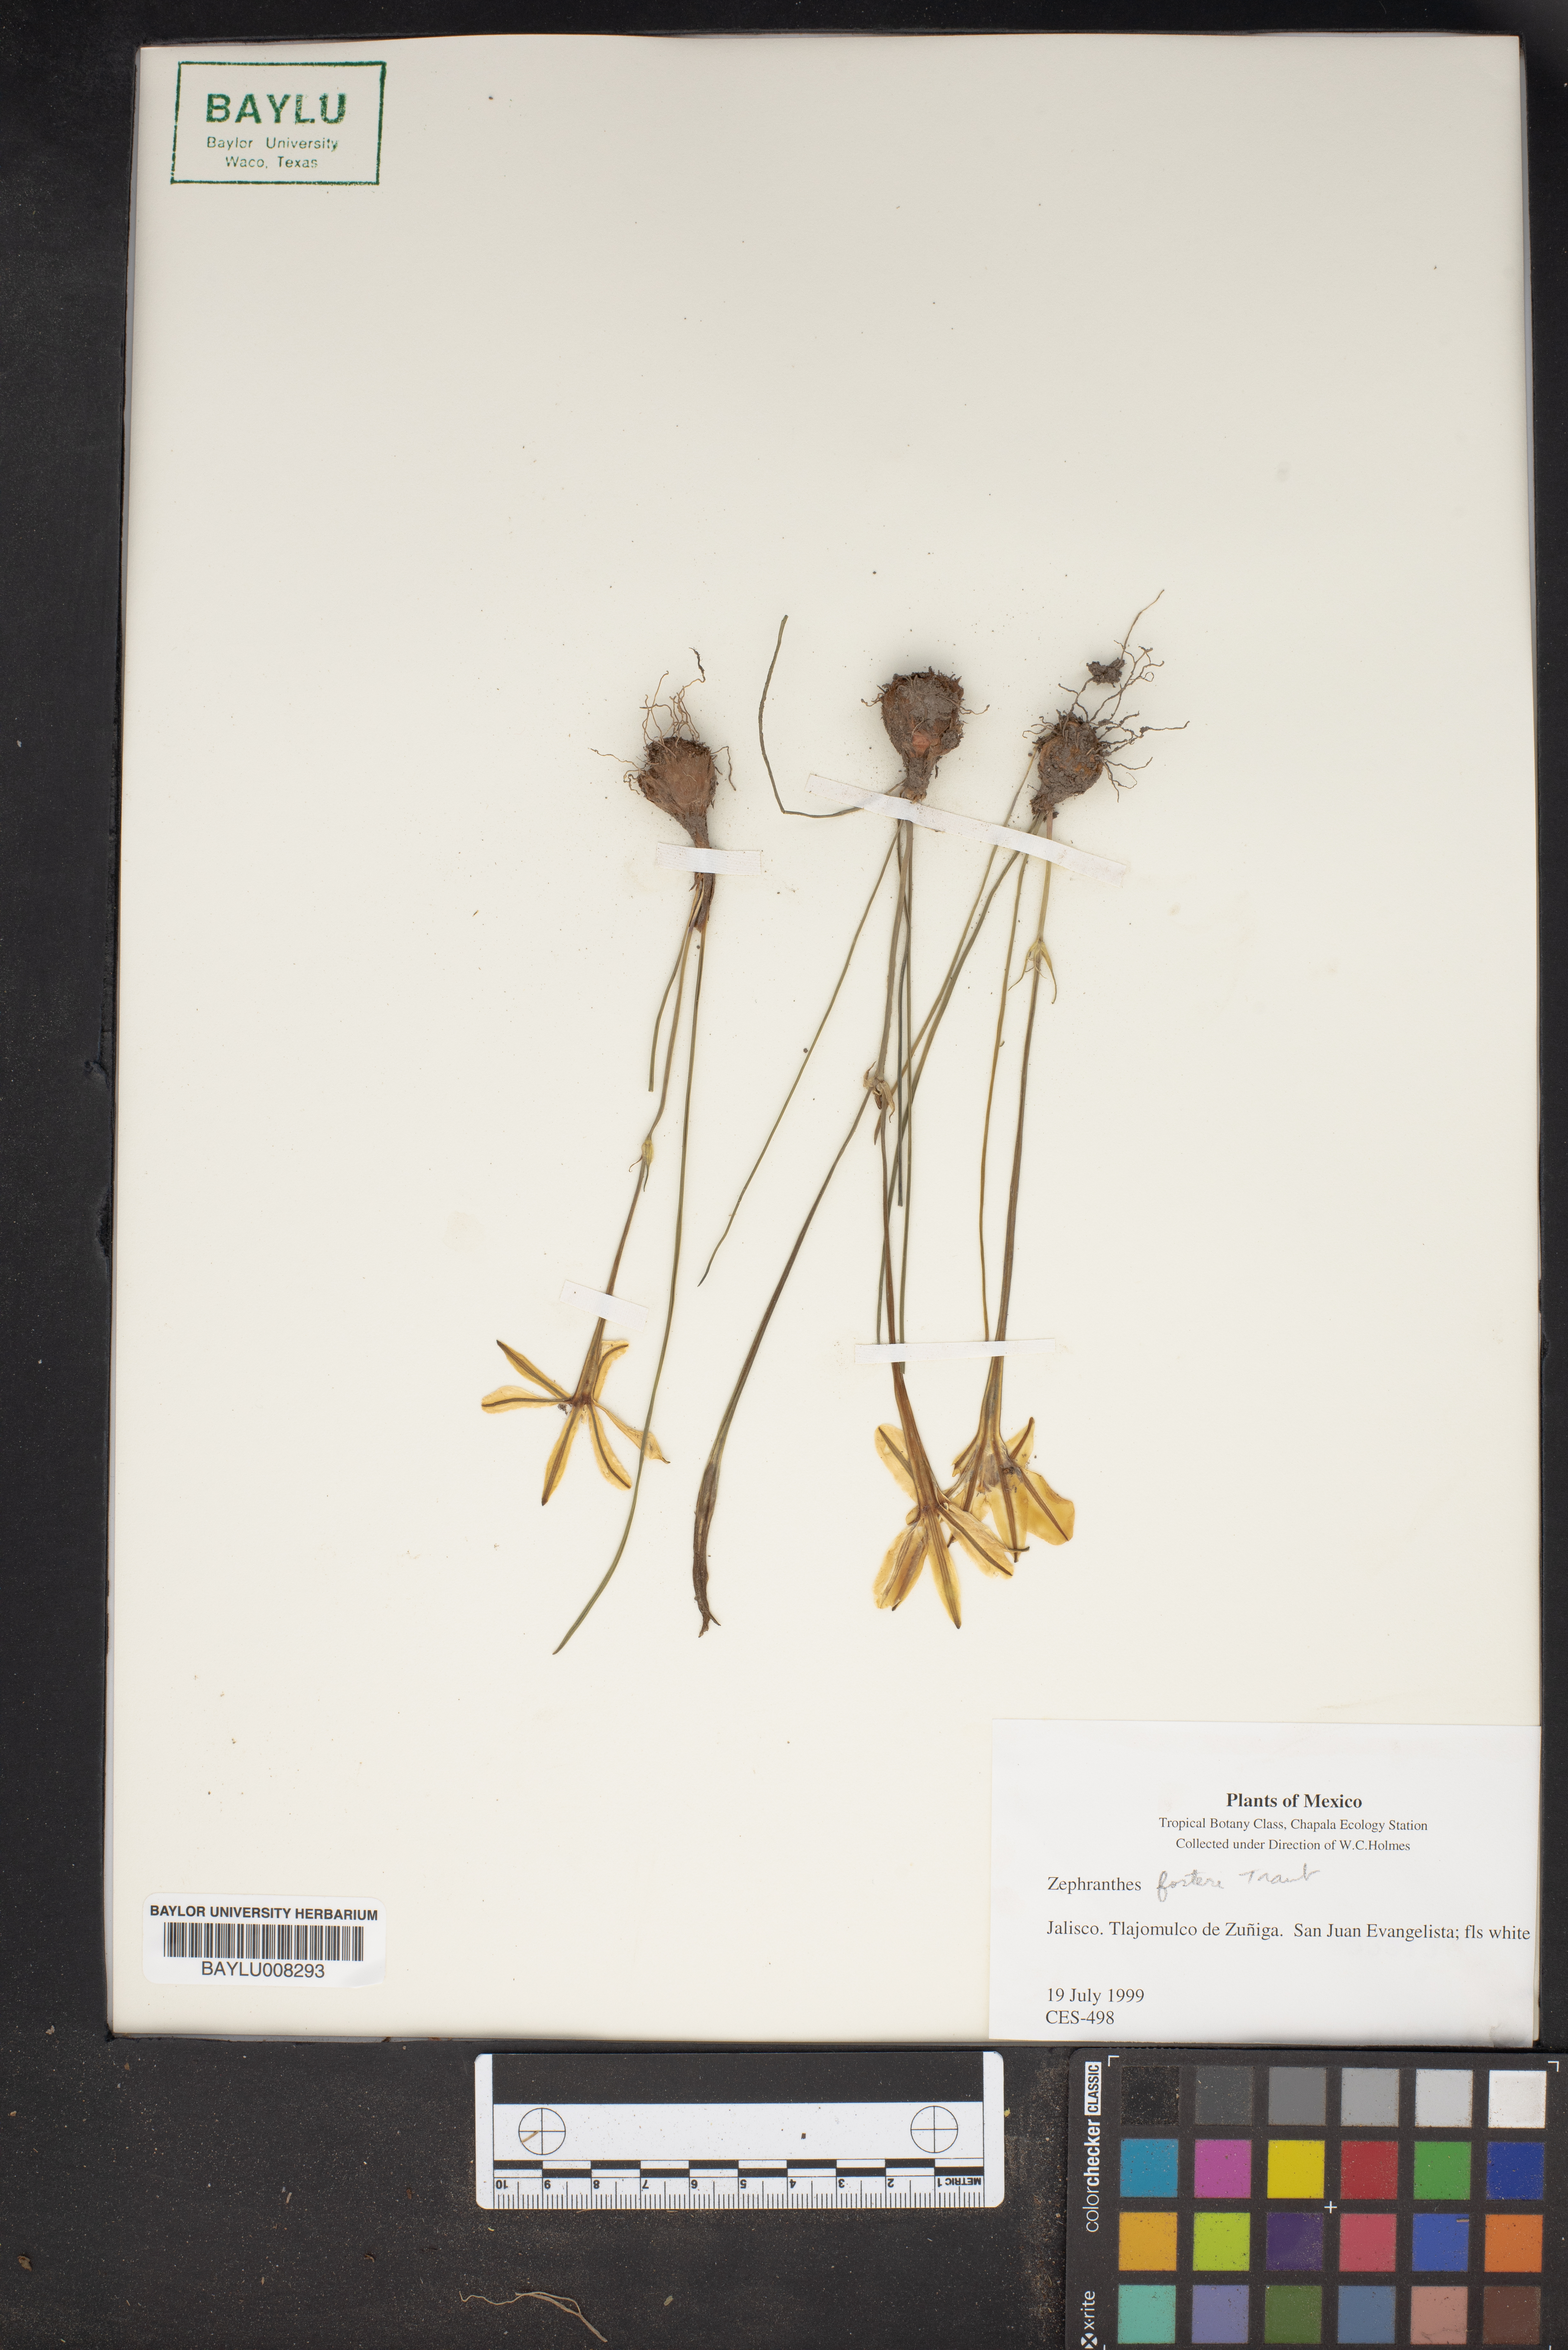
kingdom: Plantae
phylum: Tracheophyta
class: Liliopsida
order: Asparagales
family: Amaryllidaceae
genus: Zephyranthes
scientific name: Zephyranthes fosteri
